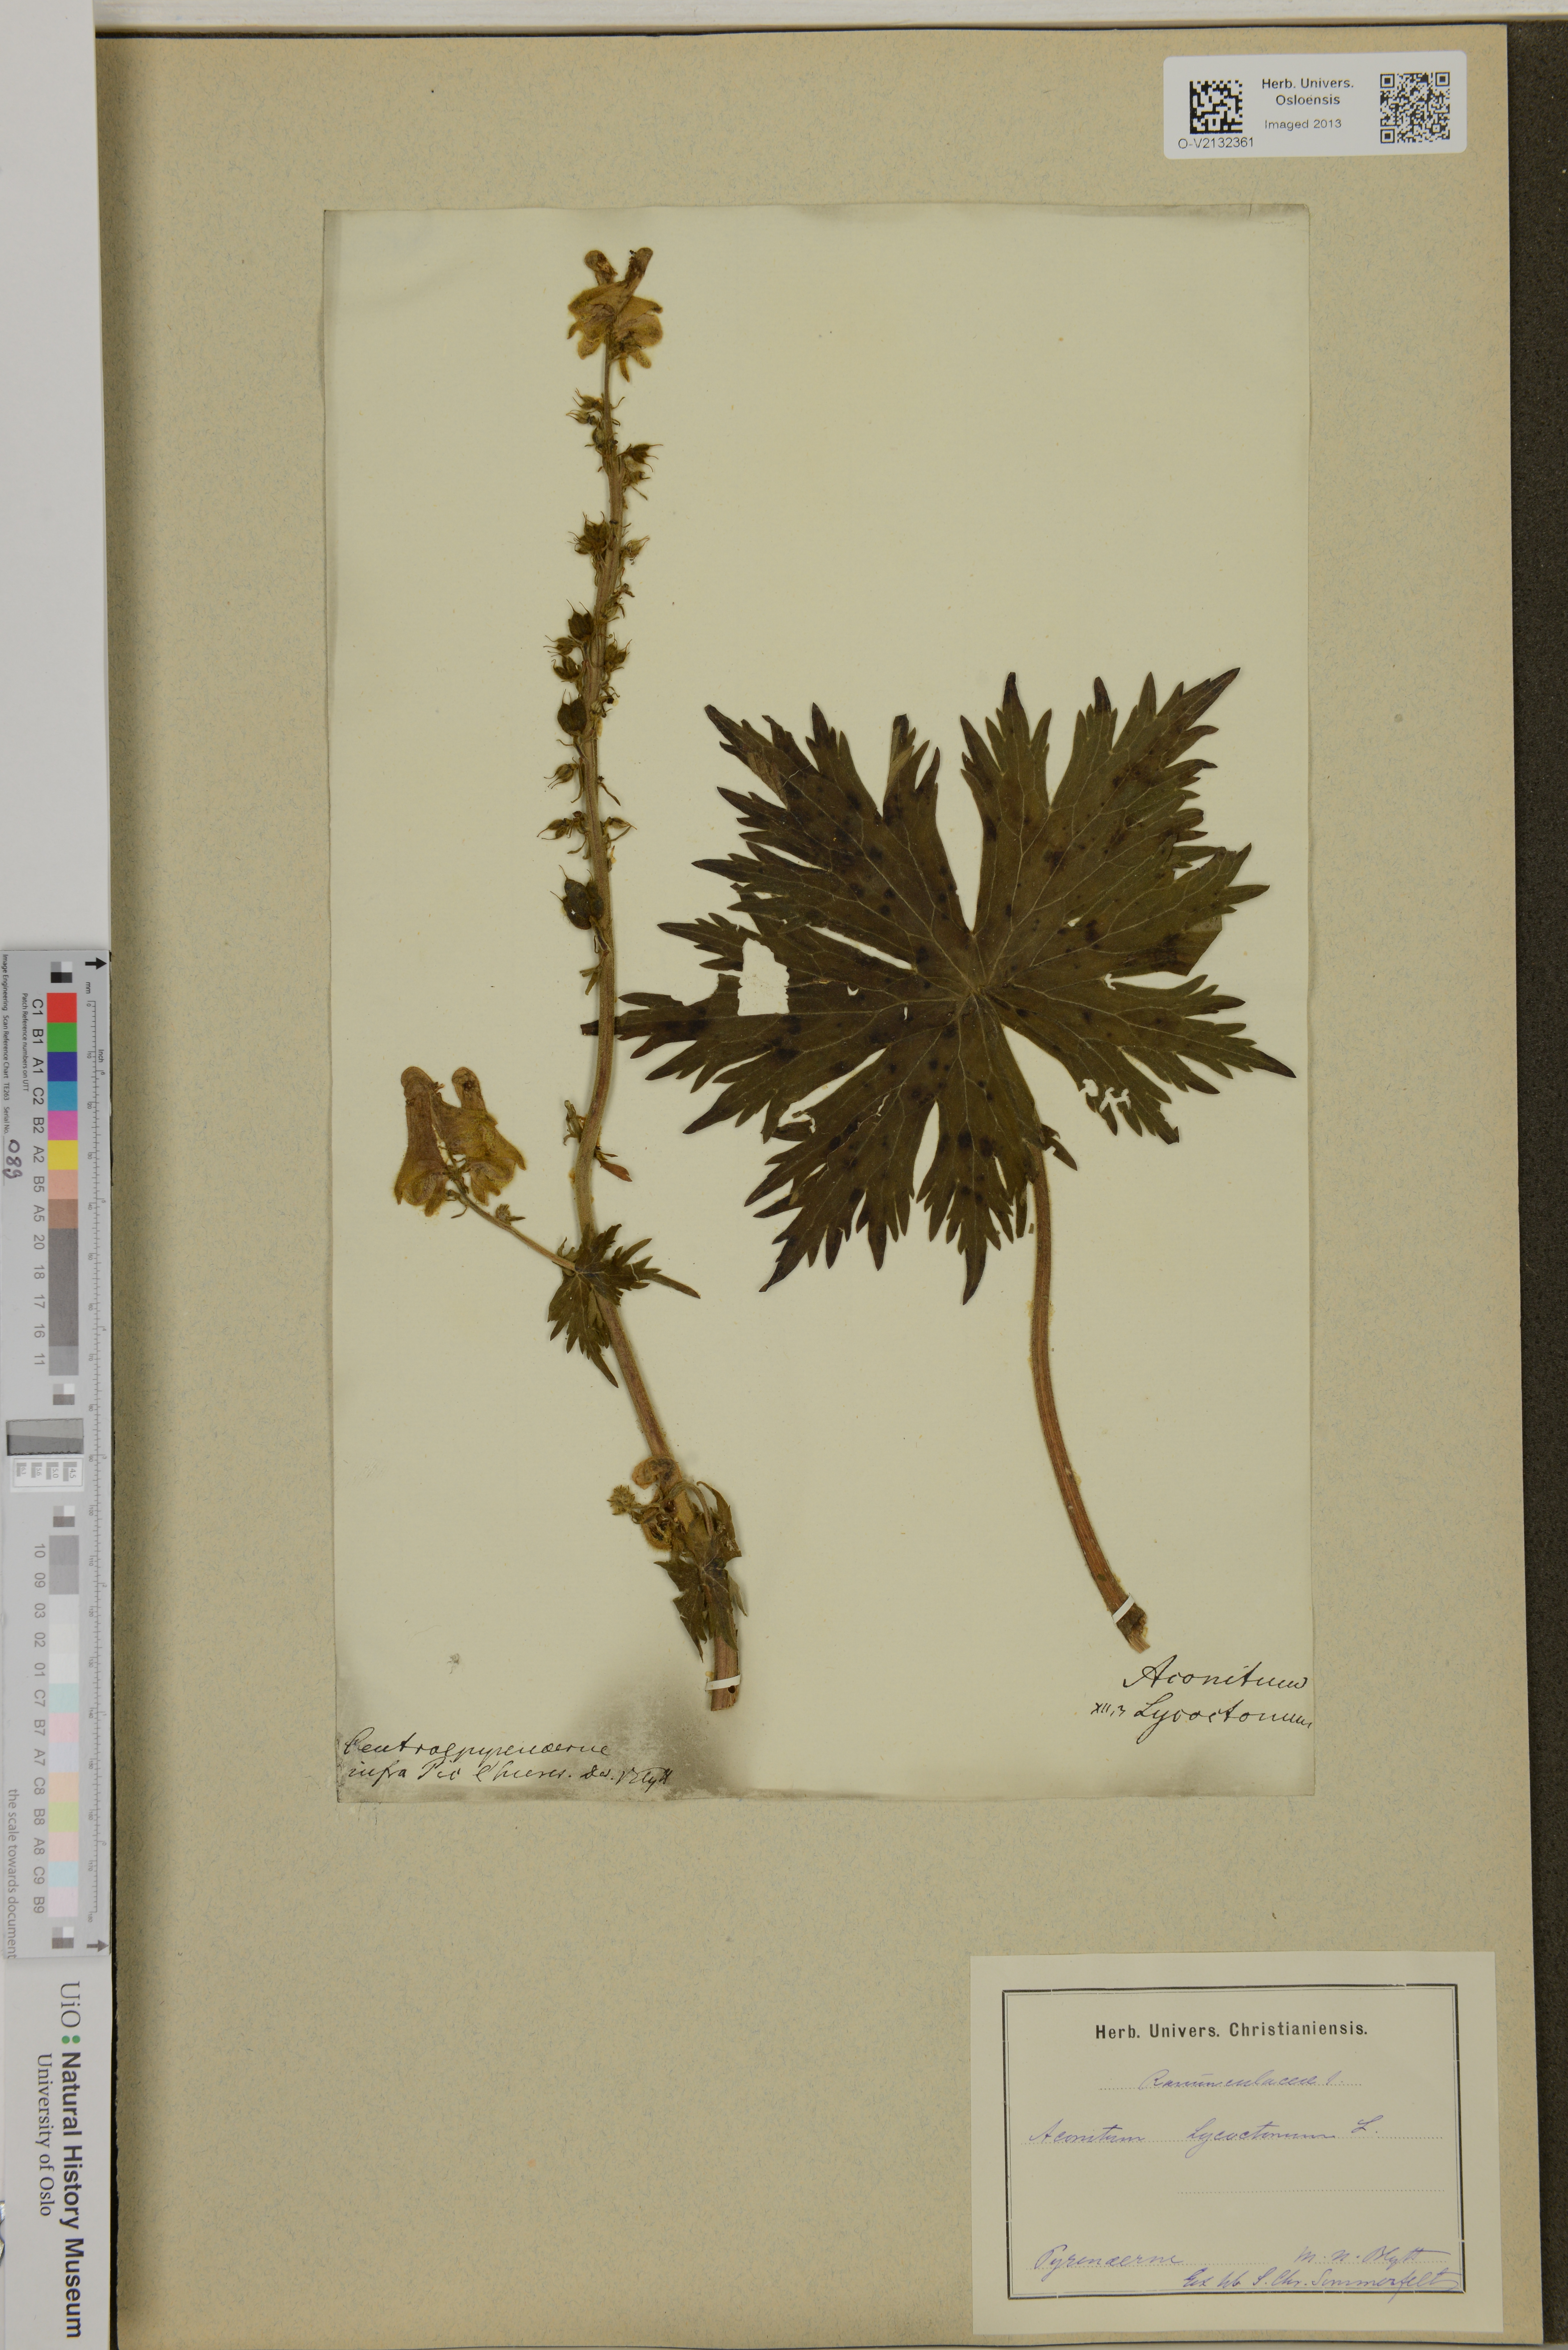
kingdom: Plantae
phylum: Tracheophyta
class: Magnoliopsida
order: Ranunculales
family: Ranunculaceae
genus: Aconitum
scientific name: Aconitum lycoctonum
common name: Wolf's-bane
